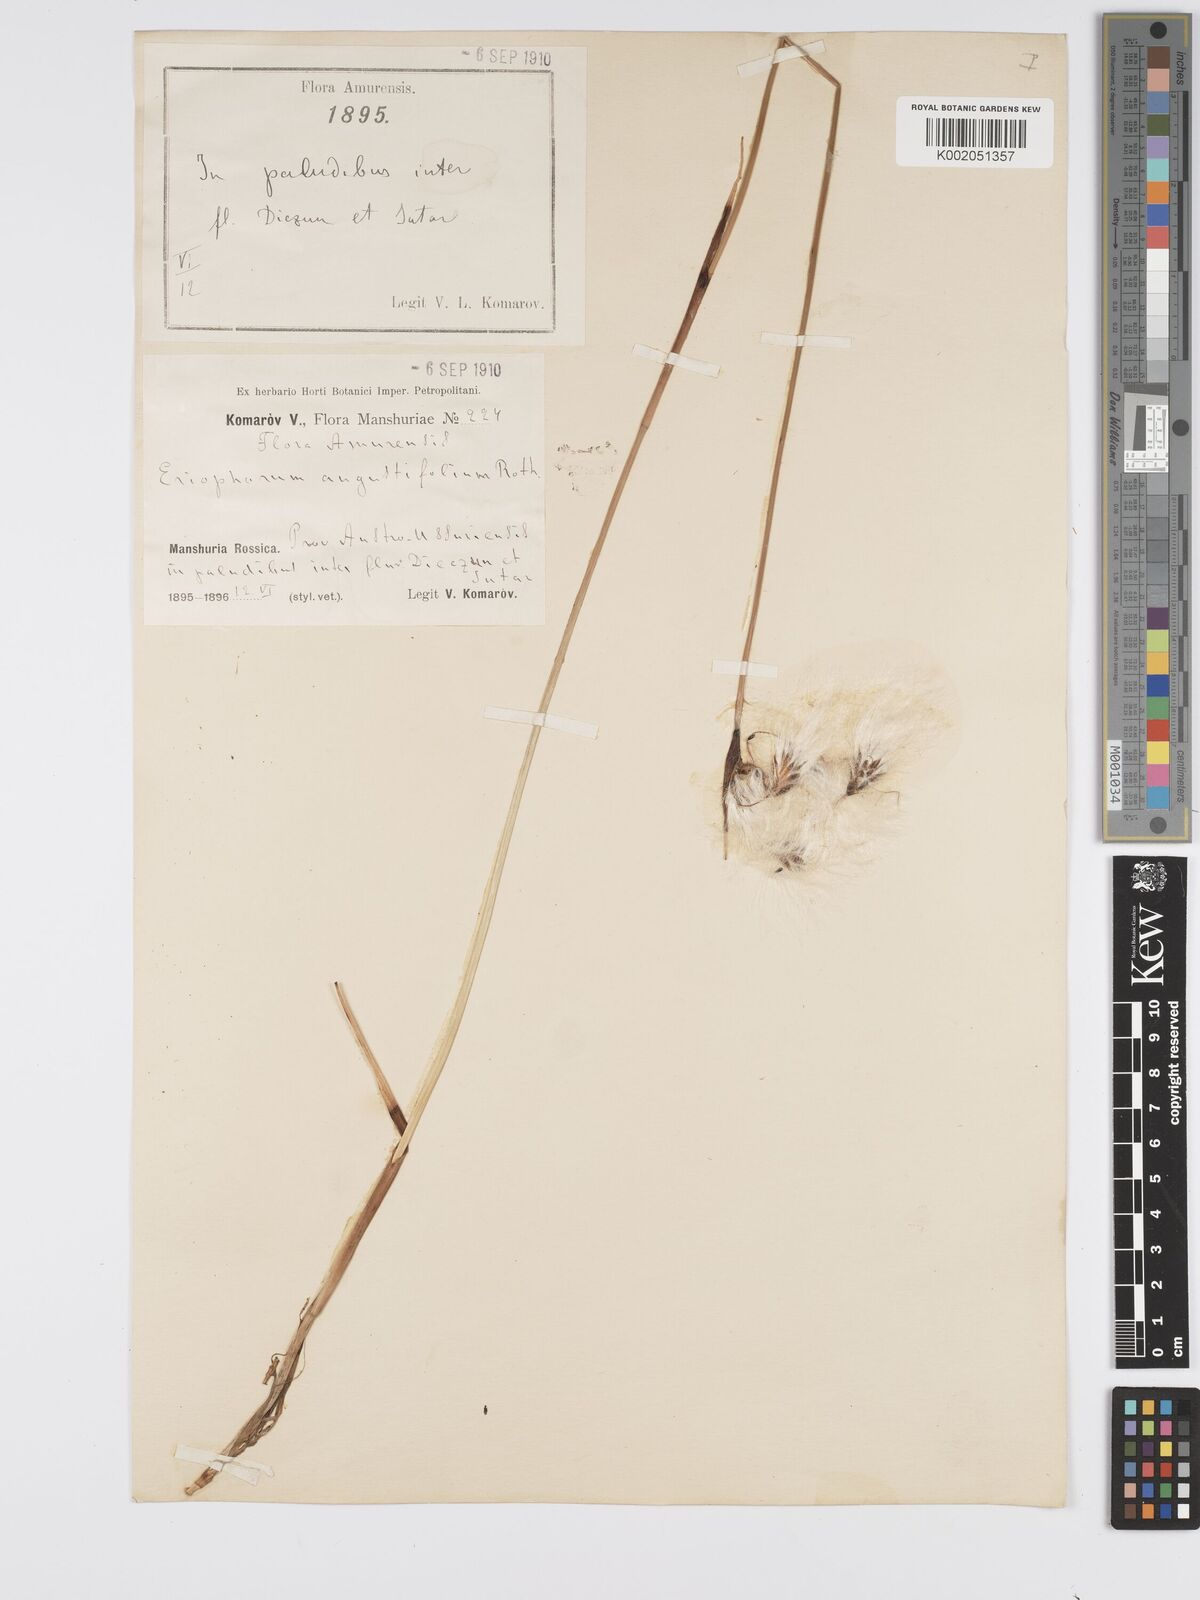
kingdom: Plantae
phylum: Tracheophyta
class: Liliopsida
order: Poales
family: Cyperaceae
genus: Eriophorum
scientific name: Eriophorum angustifolium
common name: Common cottongrass
